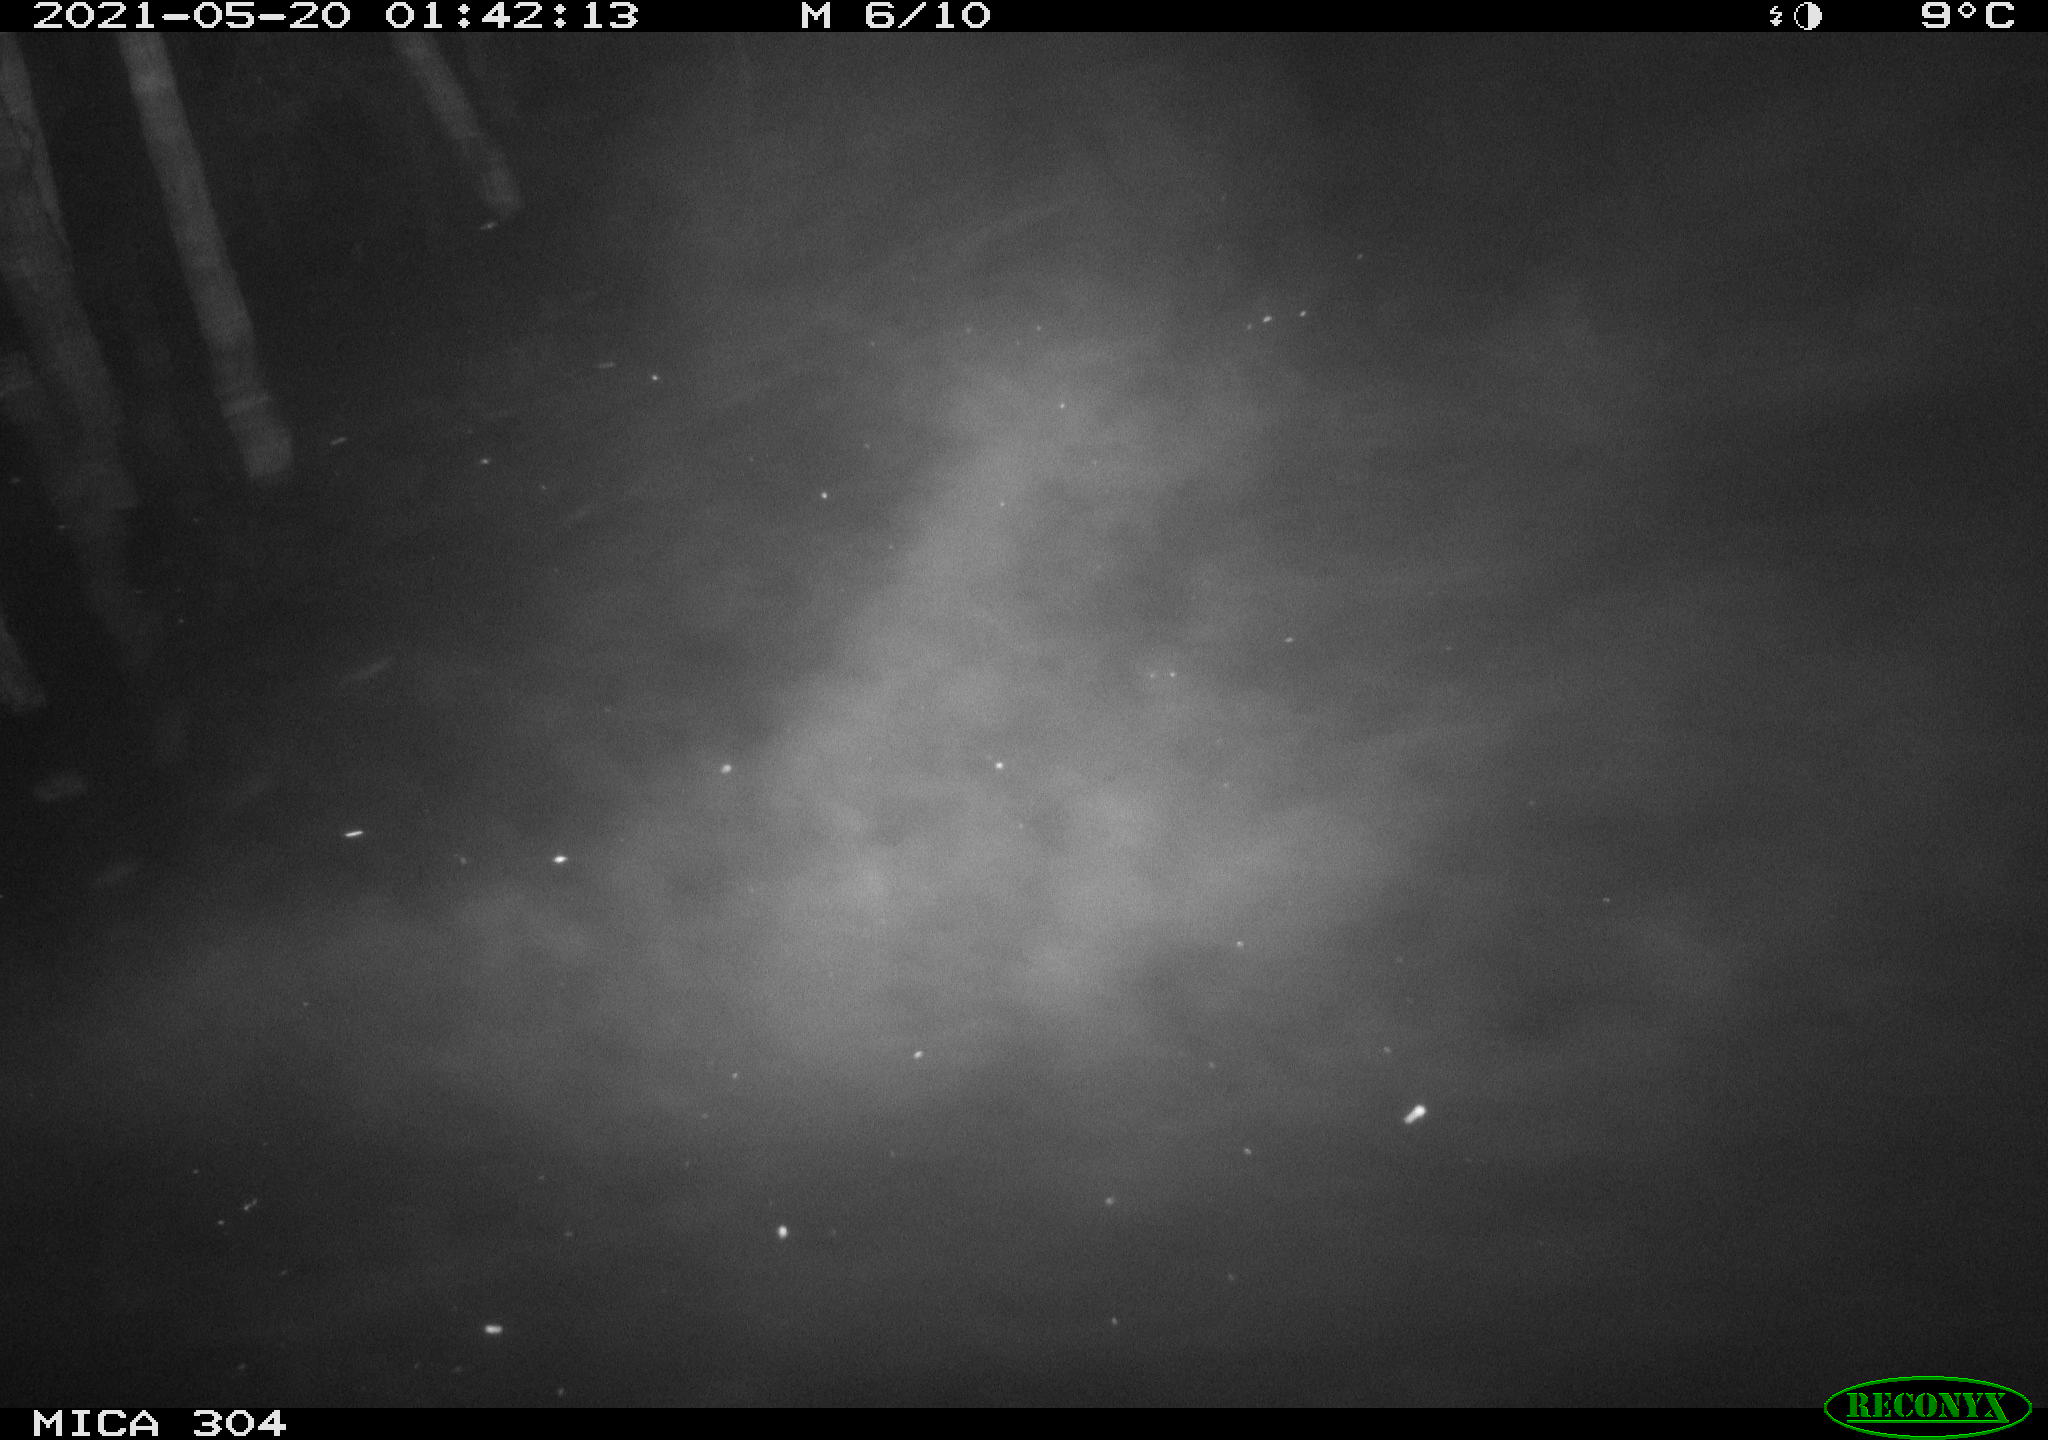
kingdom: Animalia
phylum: Chordata
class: Aves
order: Anseriformes
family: Anatidae
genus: Anas
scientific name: Anas platyrhynchos
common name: Mallard
